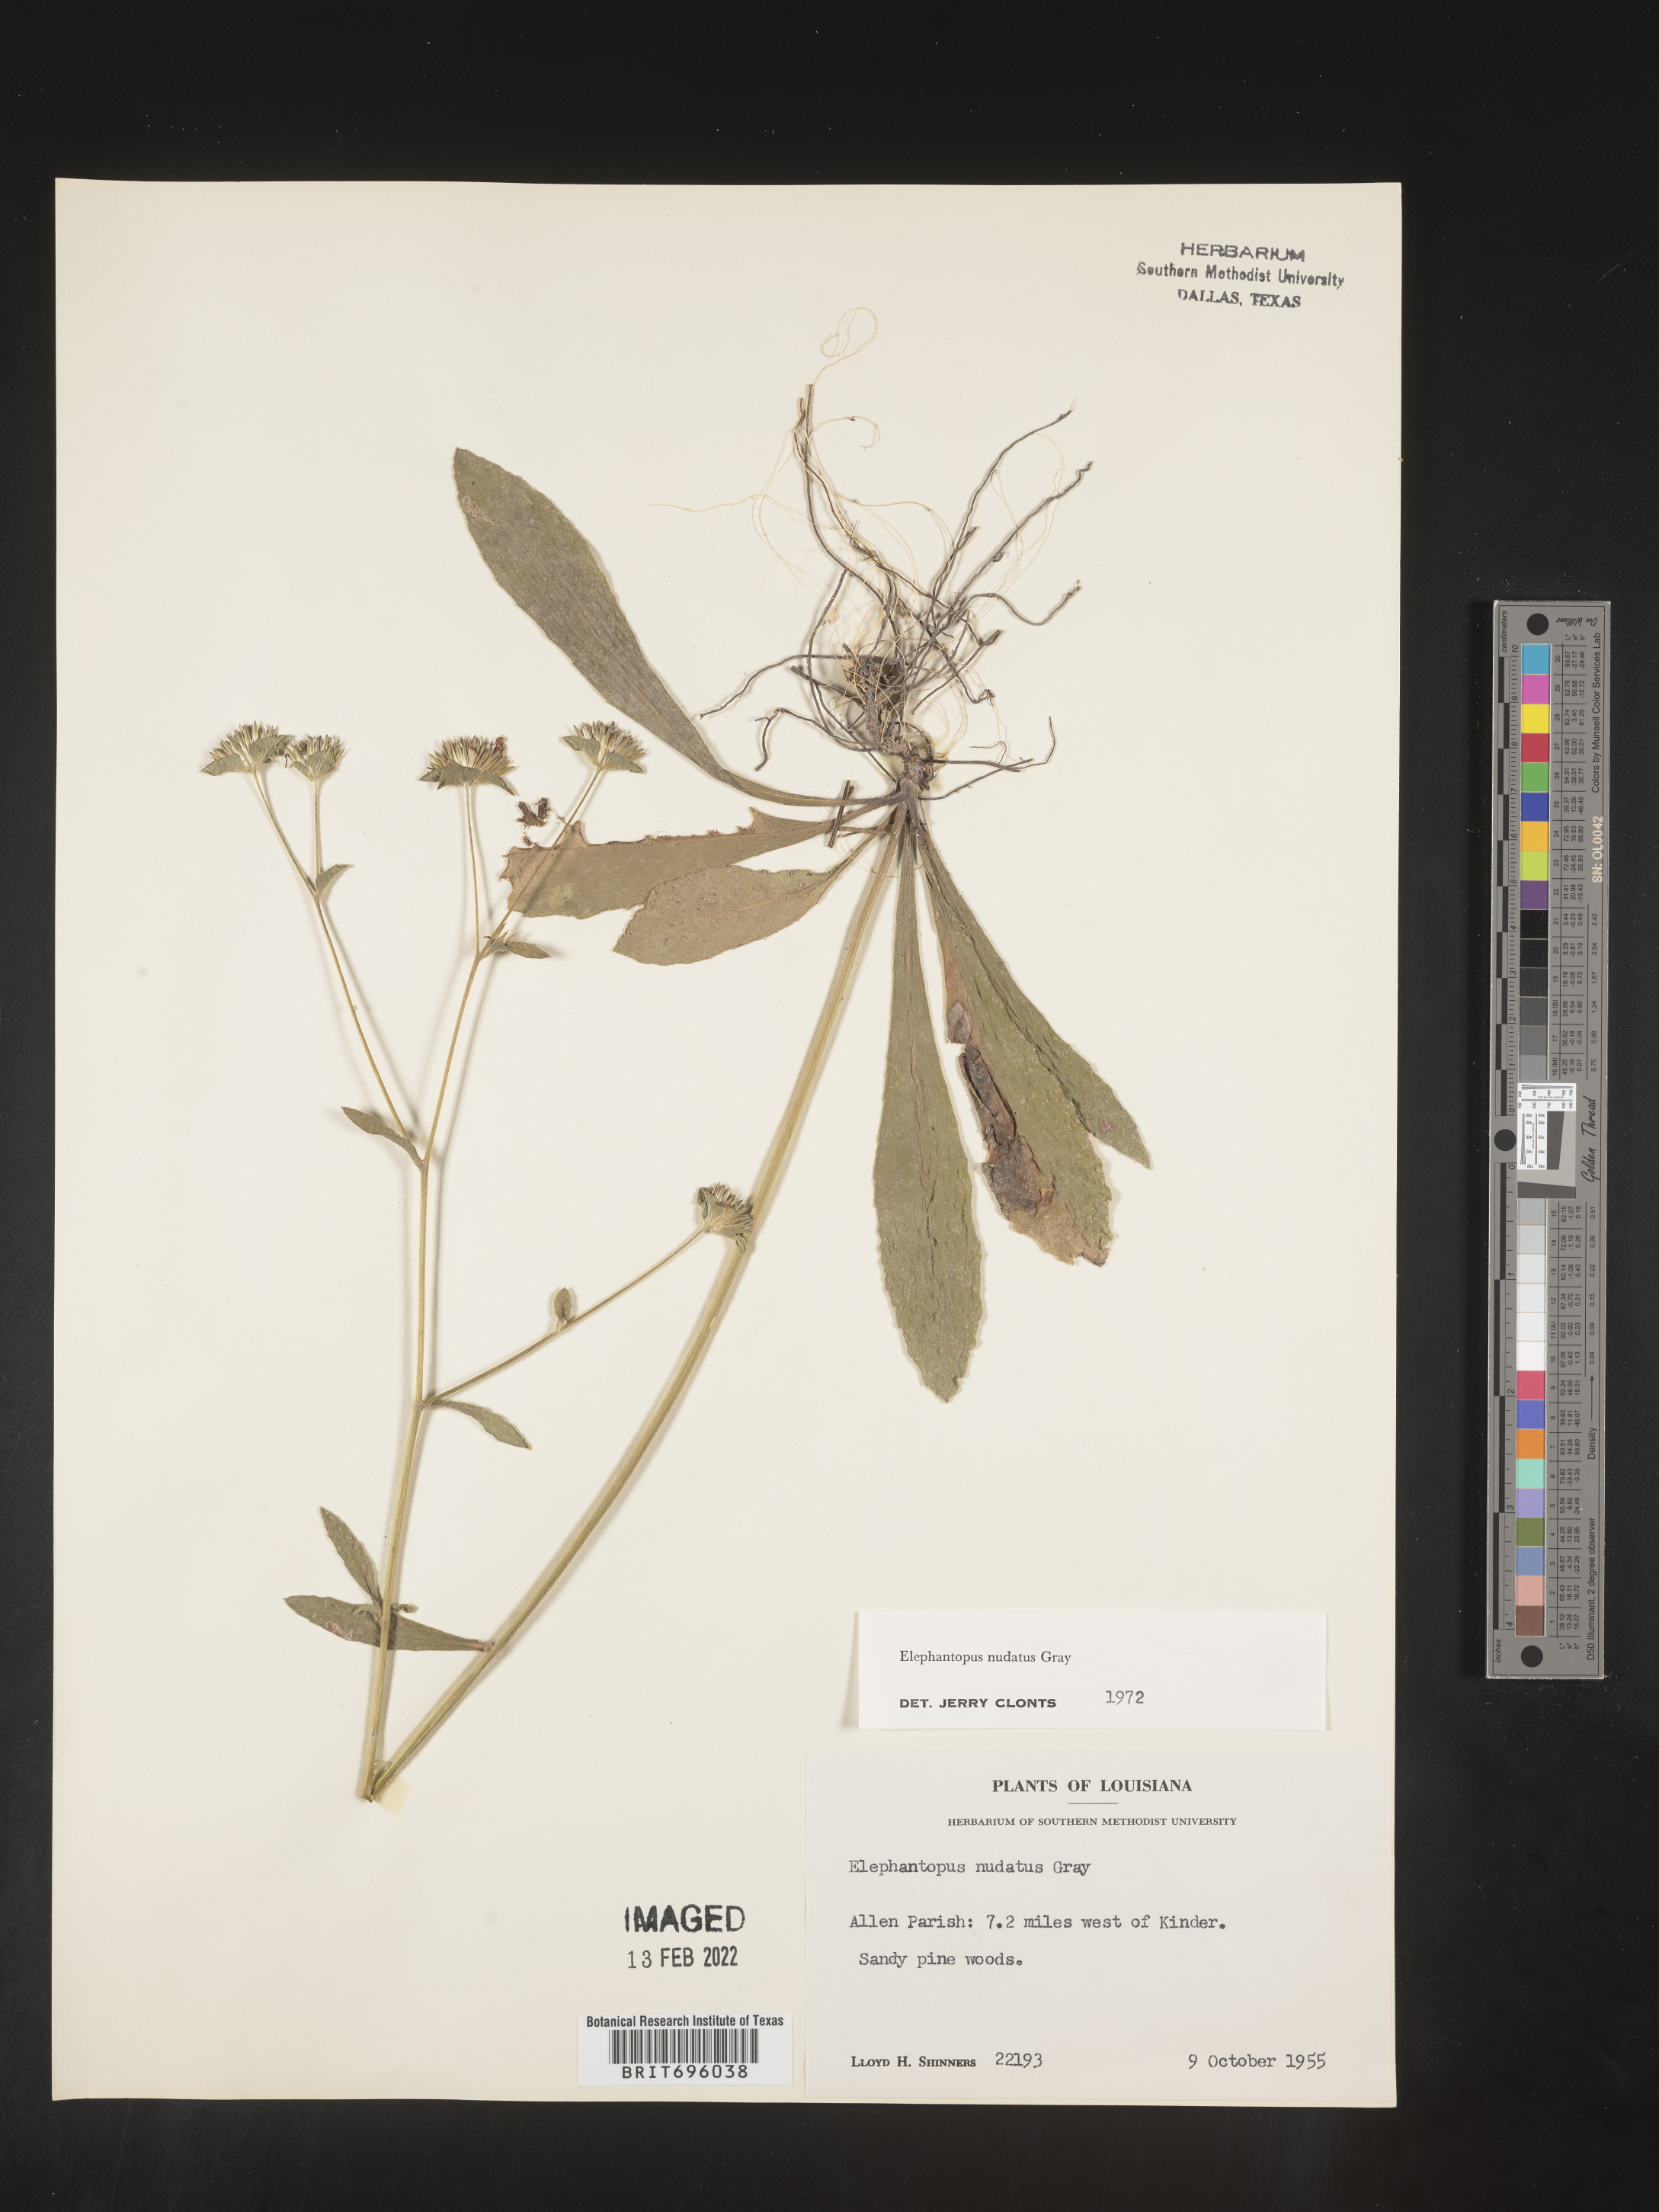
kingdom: Plantae
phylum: Tracheophyta
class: Magnoliopsida
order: Asterales
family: Asteraceae
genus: Elephantopus
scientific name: Elephantopus nudatus
